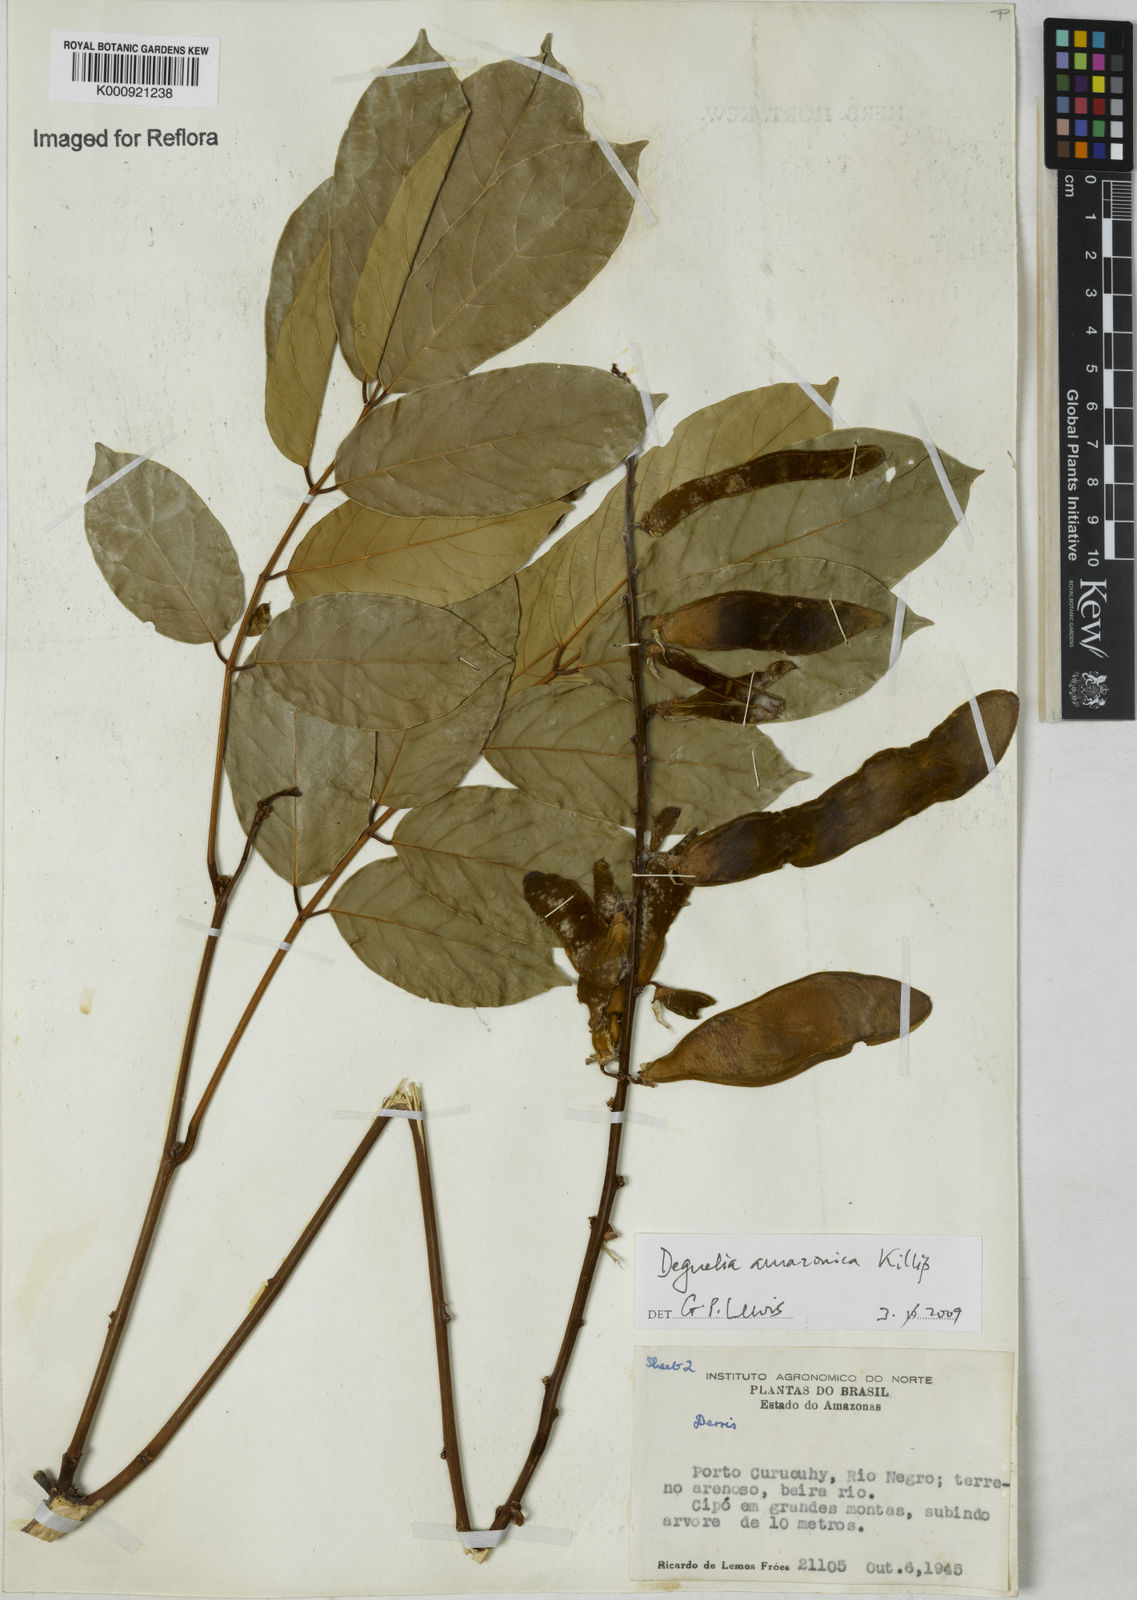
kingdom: Plantae
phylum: Tracheophyta
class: Magnoliopsida
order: Fabales
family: Fabaceae
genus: Deguelia
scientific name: Deguelia amazonica
